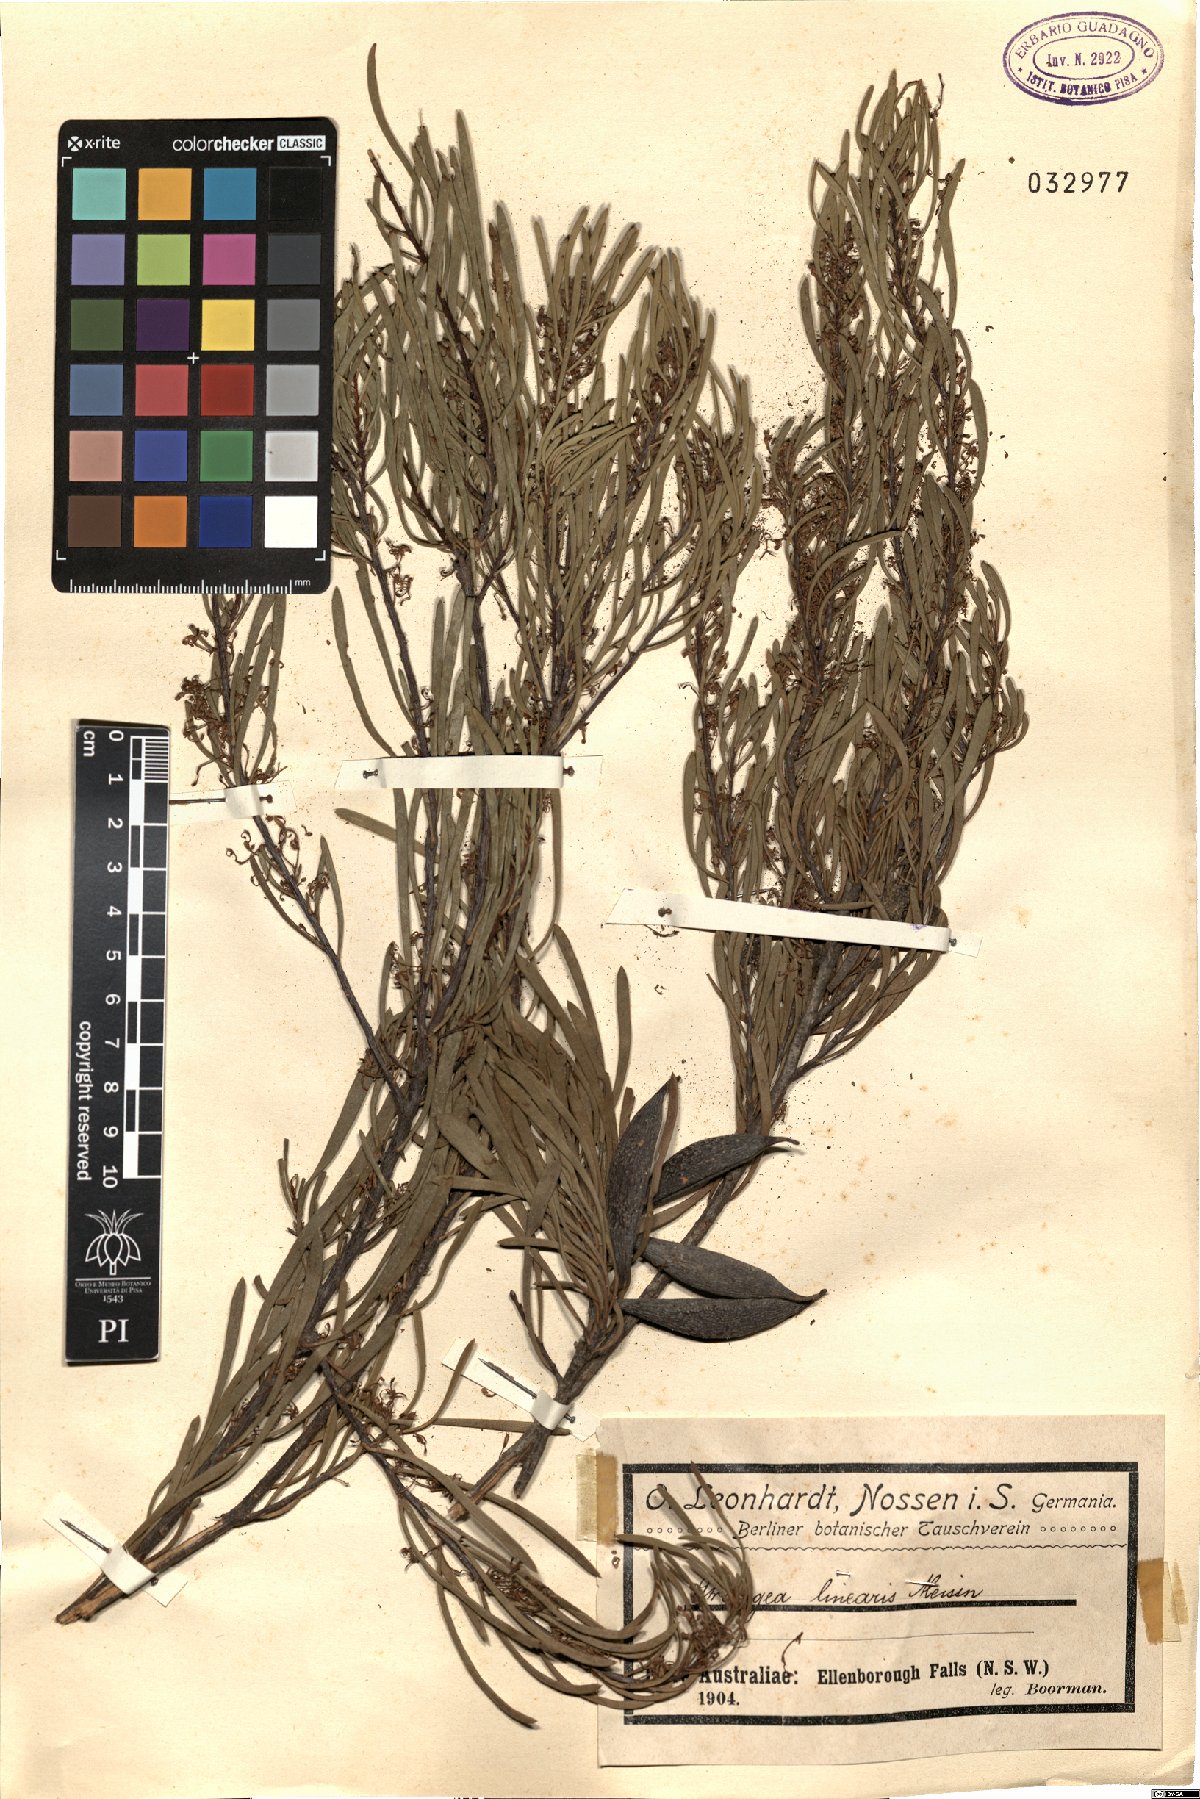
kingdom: Plantae
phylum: Tracheophyta
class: Magnoliopsida
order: Proteales
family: Proteaceae
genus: Strangea
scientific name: Strangea linearis
